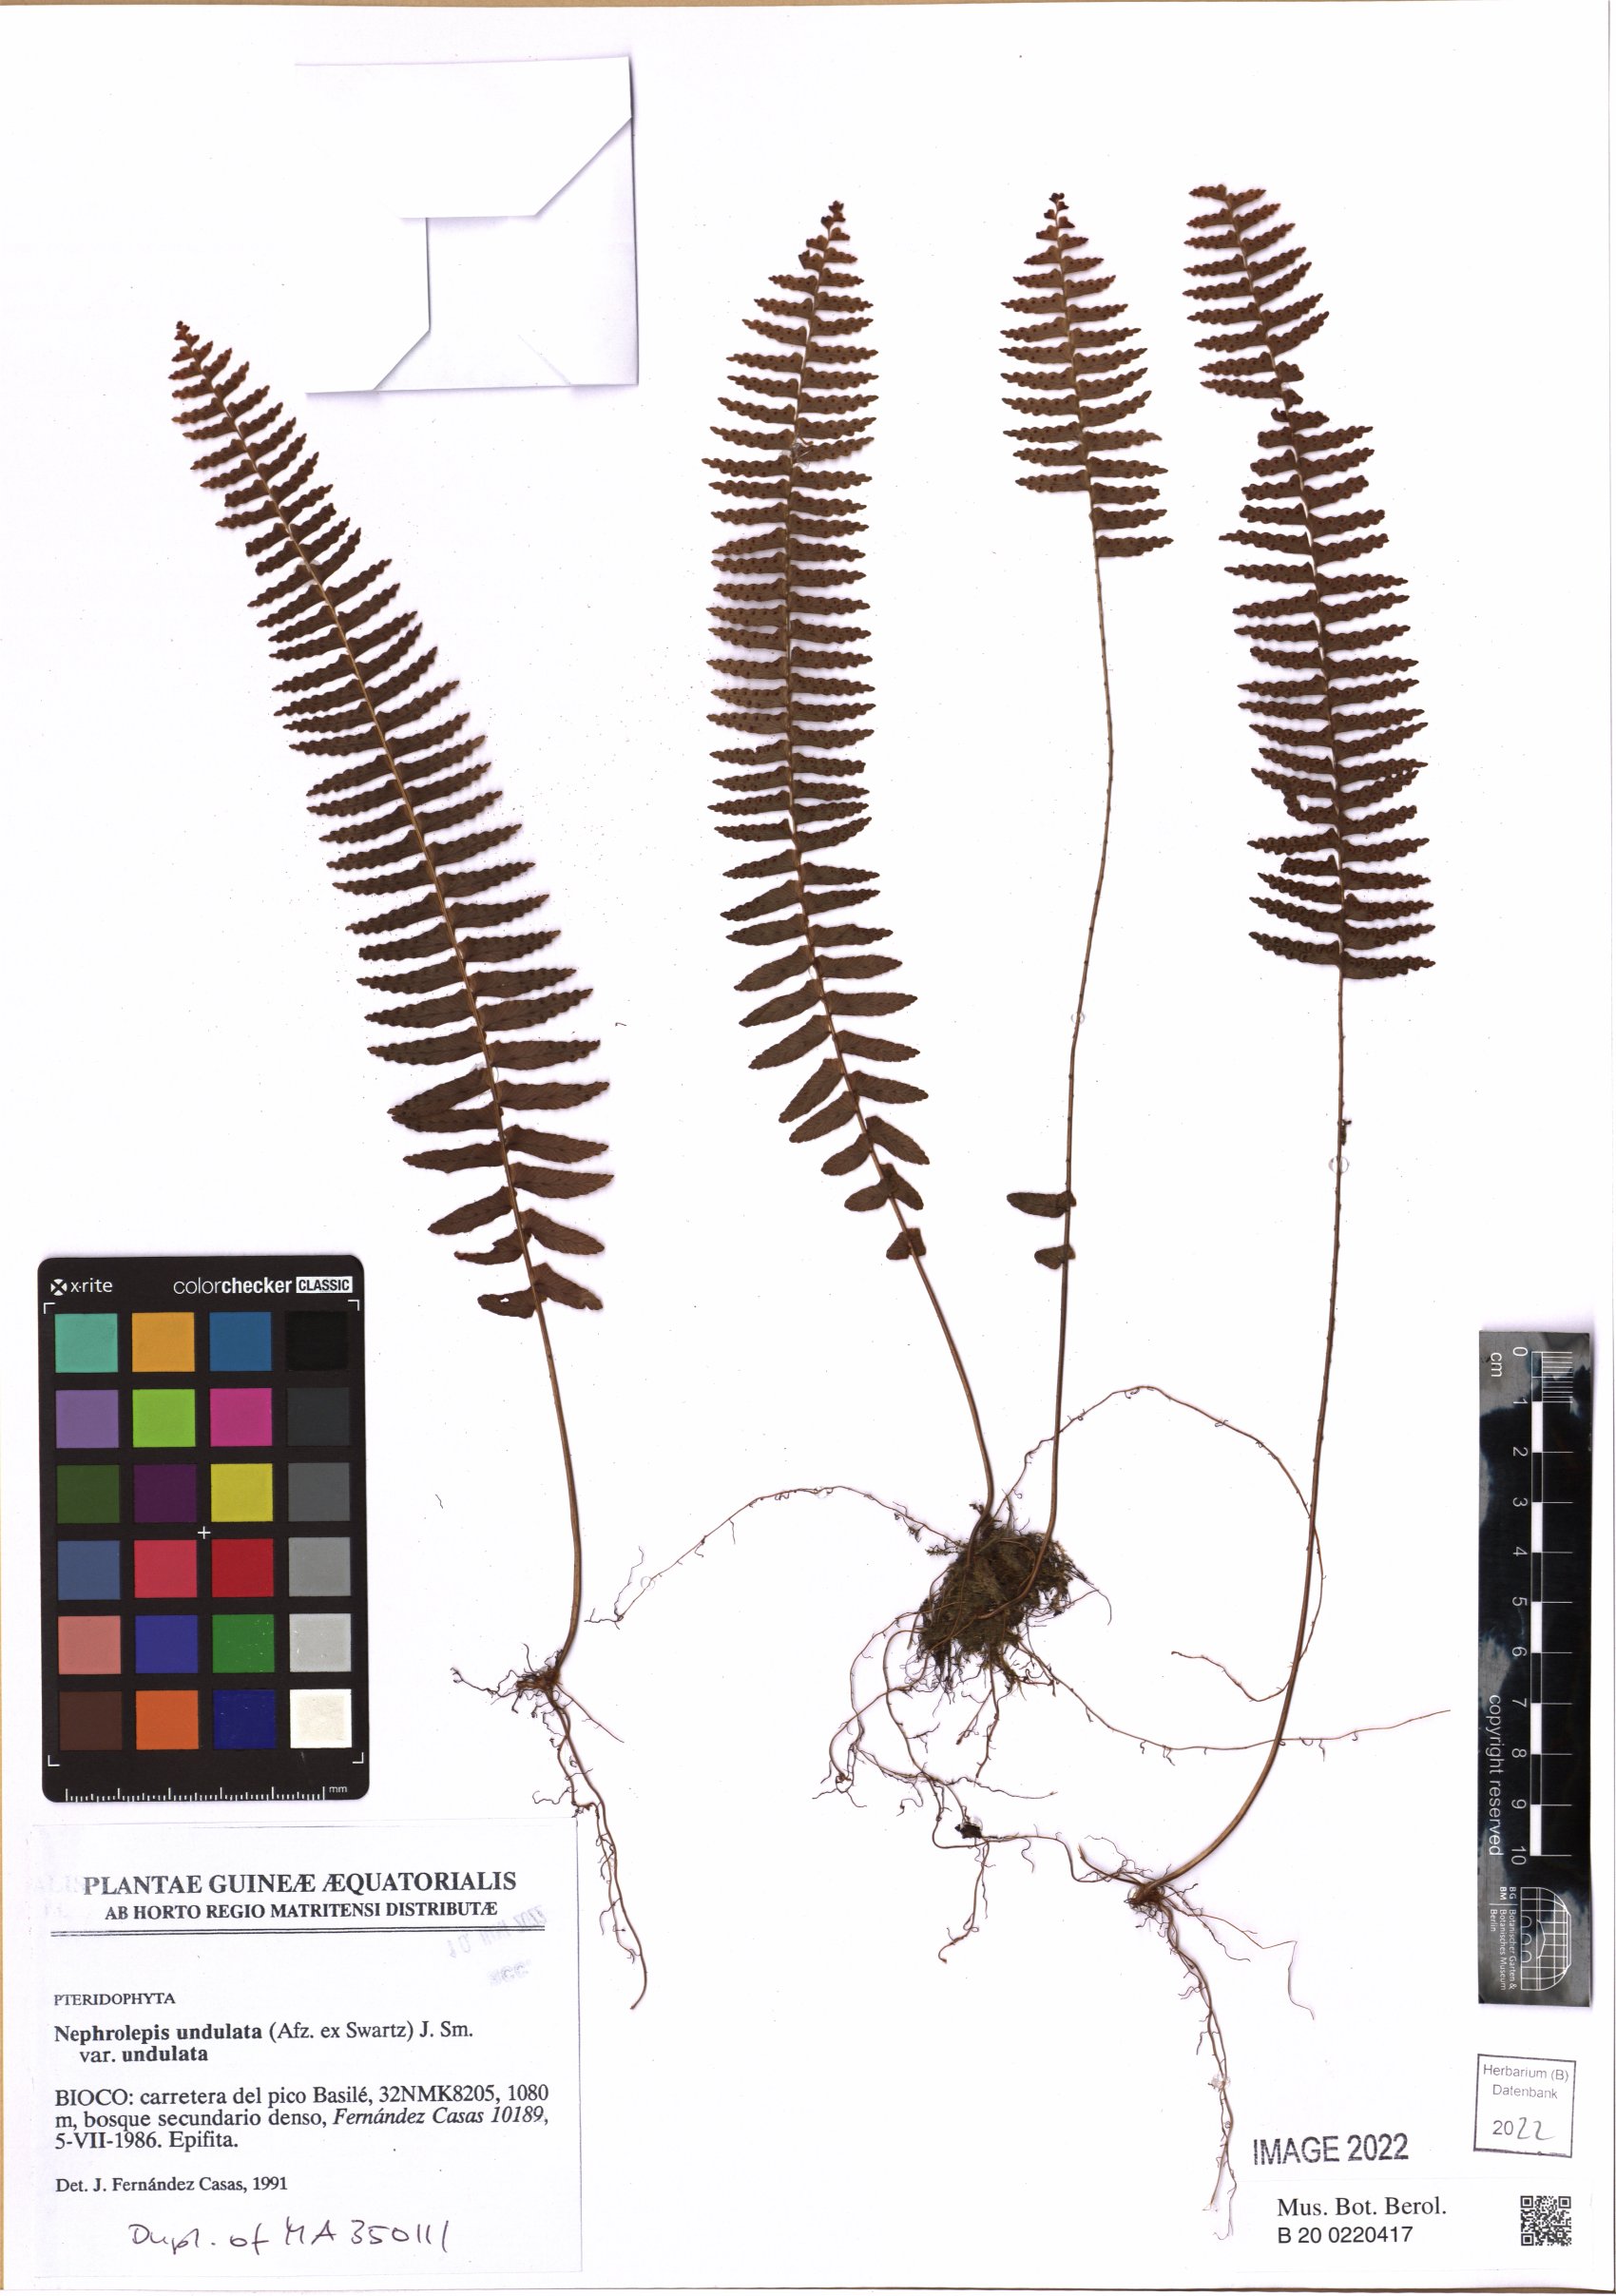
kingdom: Plantae
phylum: Tracheophyta
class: Polypodiopsida
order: Polypodiales
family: Nephrolepidaceae
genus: Nephrolepis
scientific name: Nephrolepis undulata
